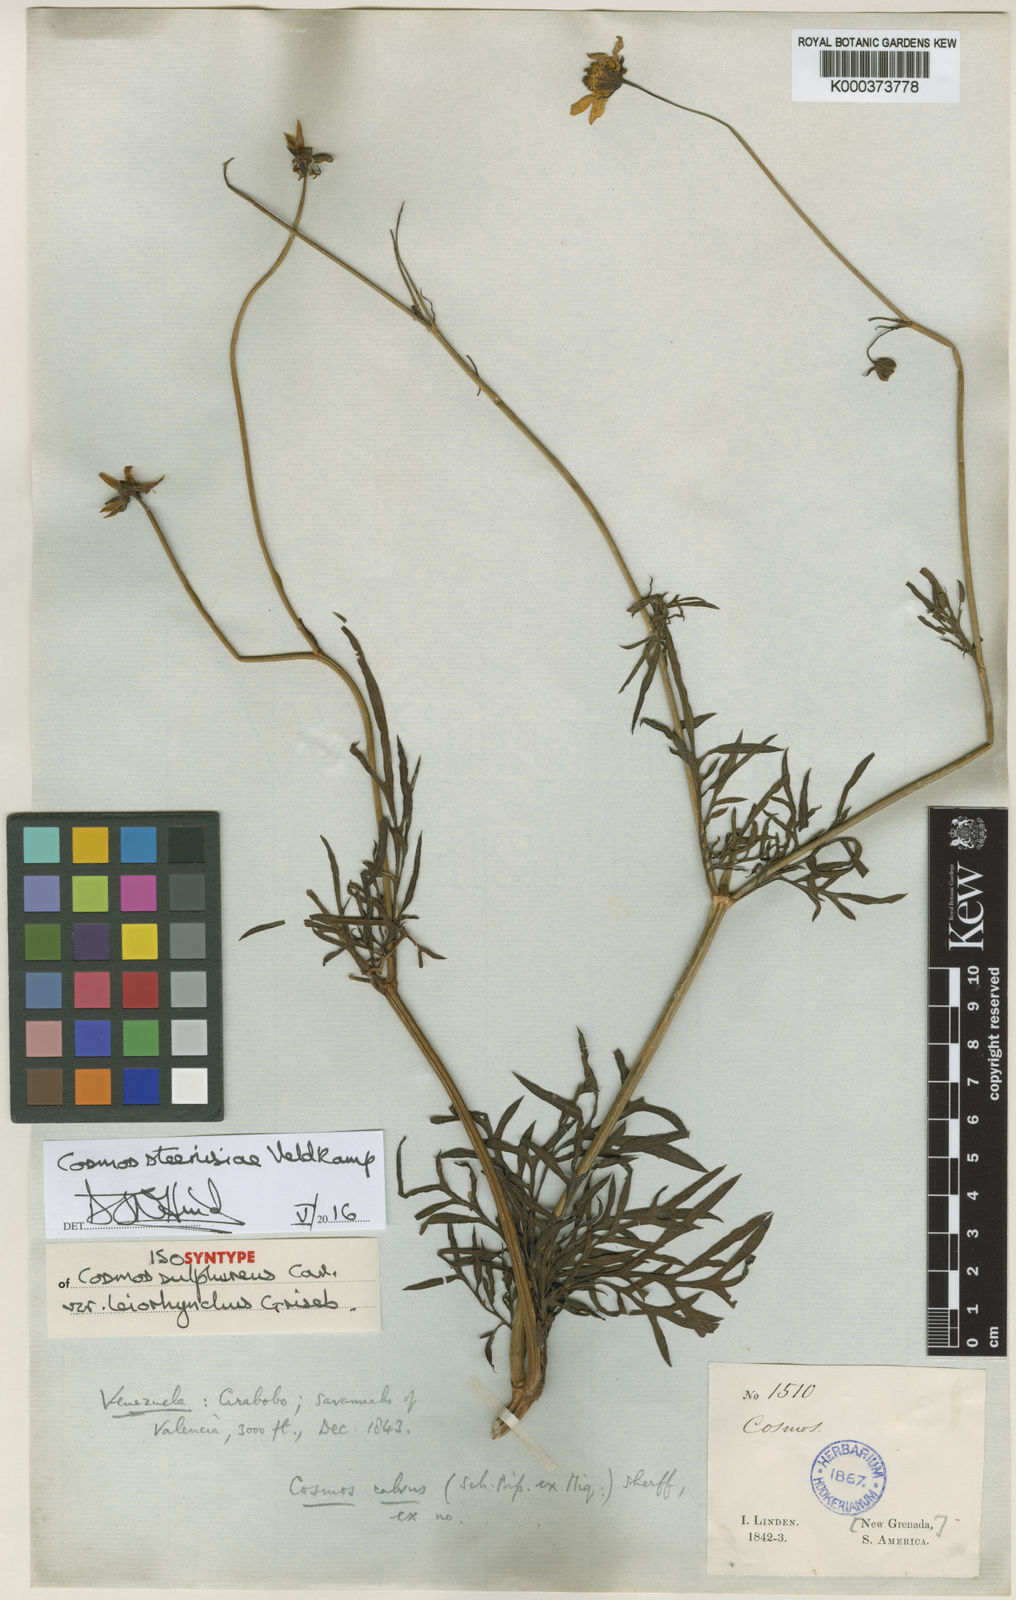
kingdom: Plantae
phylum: Tracheophyta
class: Magnoliopsida
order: Asterales
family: Asteraceae
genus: Cosmos
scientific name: Cosmos steenisiae
